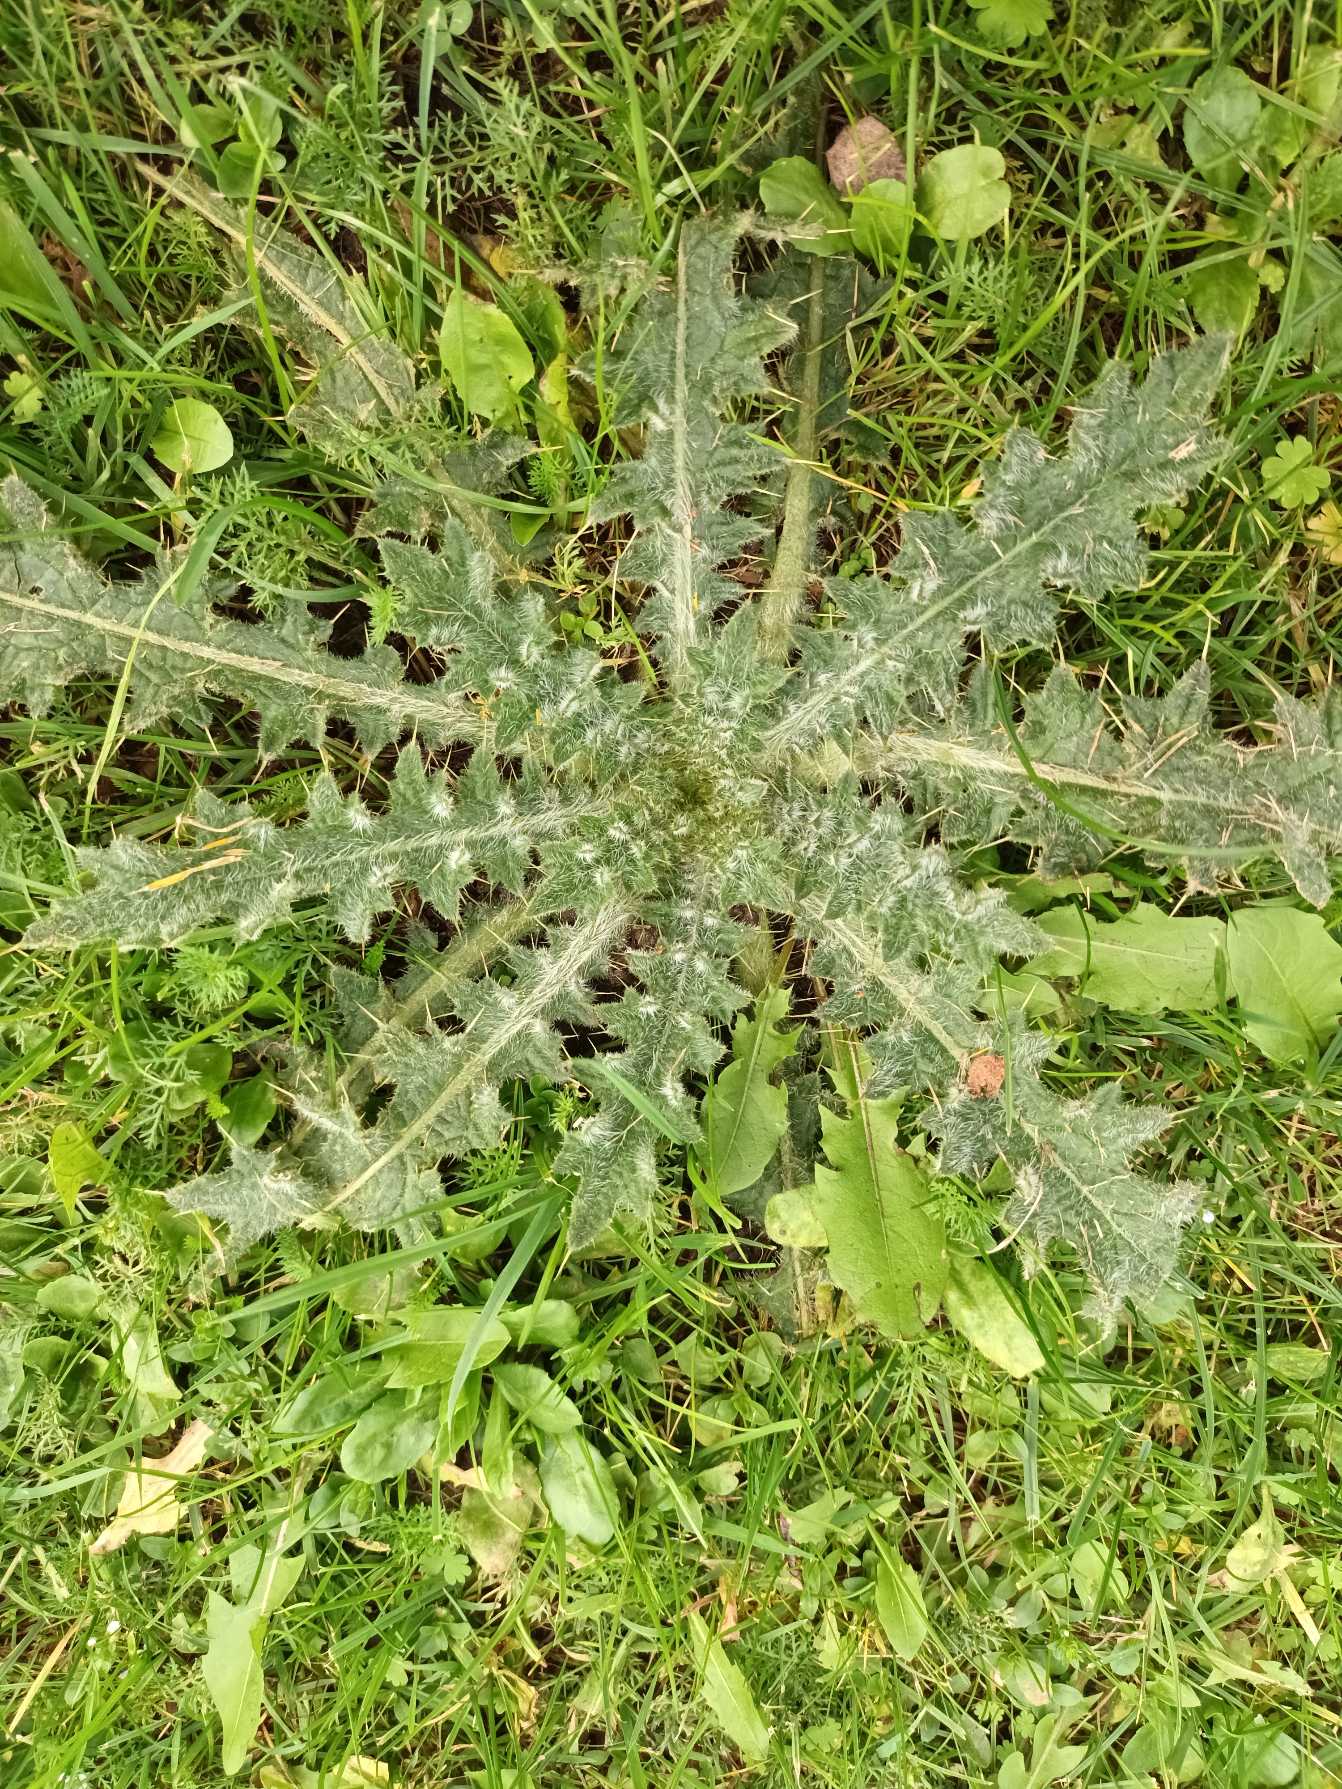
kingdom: Plantae
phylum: Tracheophyta
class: Magnoliopsida
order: Asterales
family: Asteraceae
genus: Cirsium
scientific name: Cirsium vulgare
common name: Horse-tidsel
